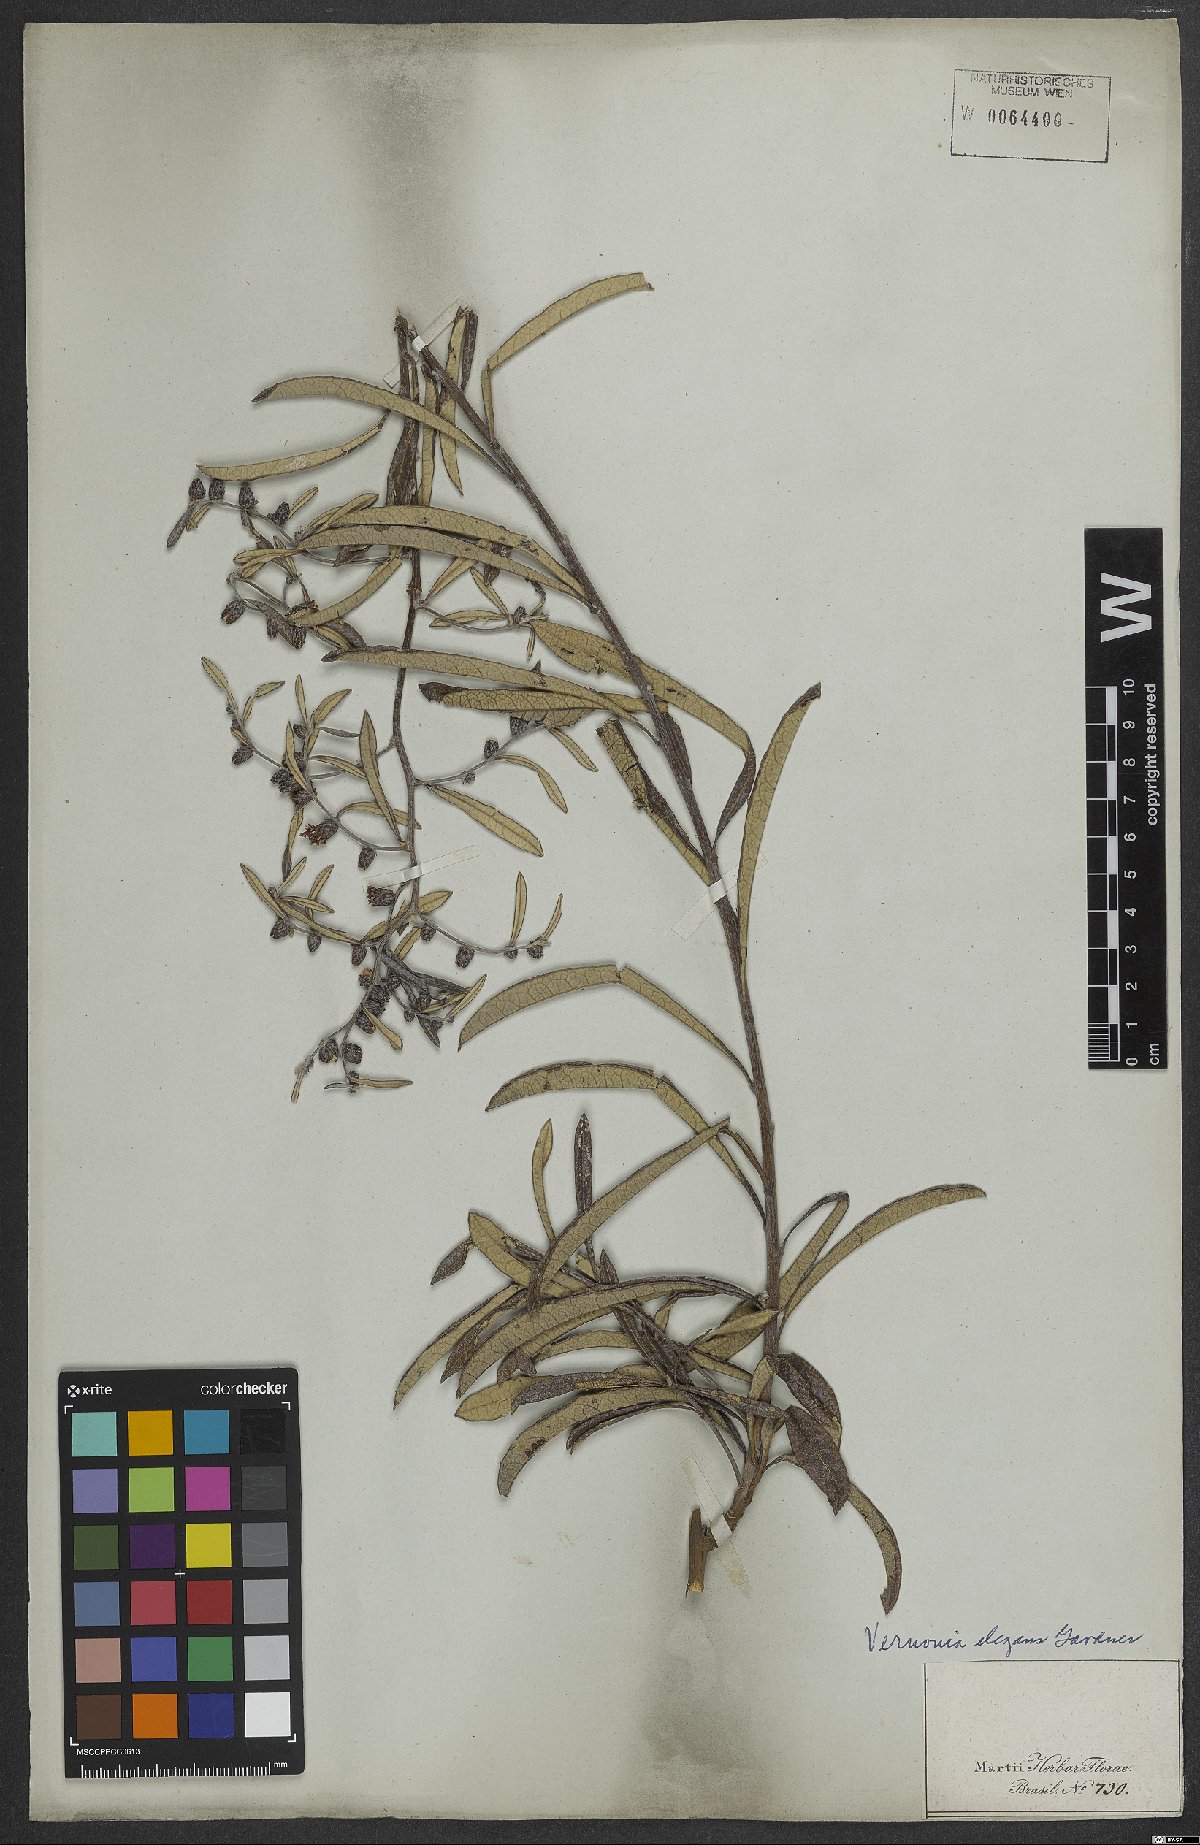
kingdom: Plantae
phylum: Tracheophyta
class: Magnoliopsida
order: Asterales
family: Asteraceae
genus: Lessingianthus
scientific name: Lessingianthus elegans
